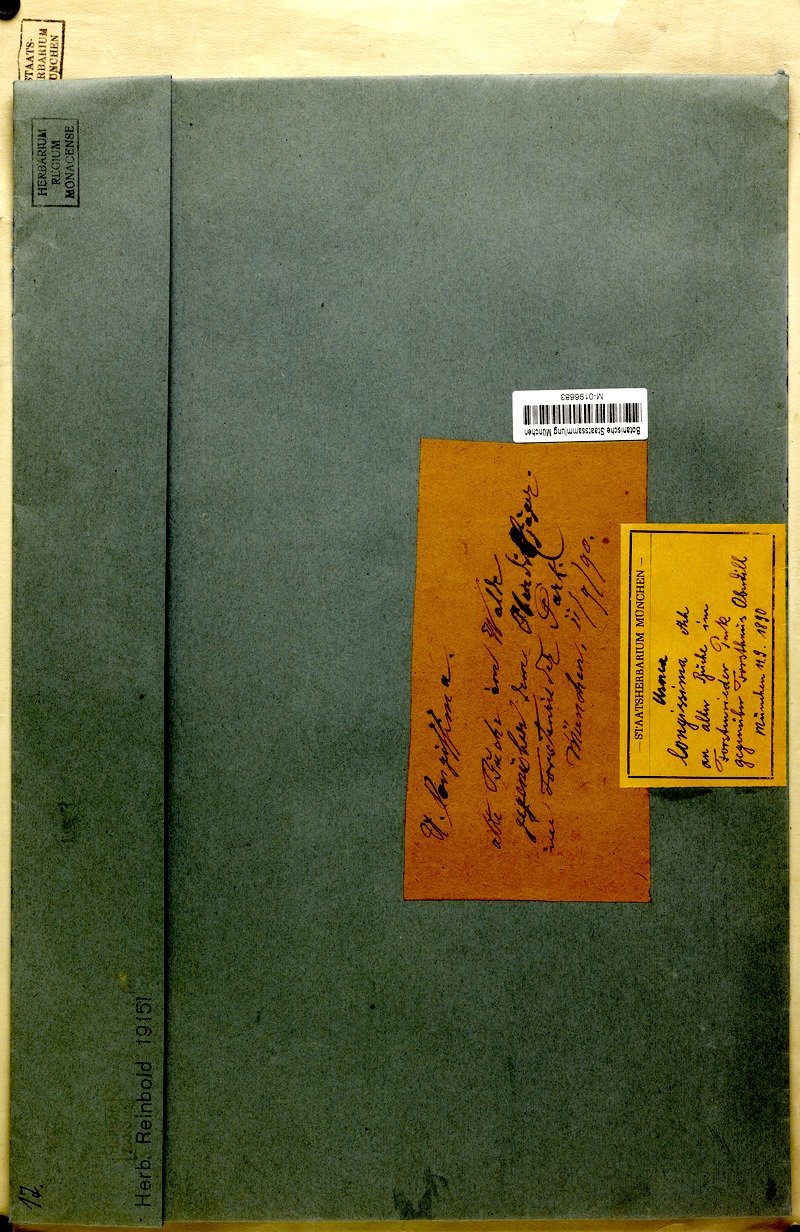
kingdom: Fungi
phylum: Ascomycota
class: Lecanoromycetes
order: Lecanorales
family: Parmeliaceae
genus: Dolichousnea
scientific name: Dolichousnea longissima
